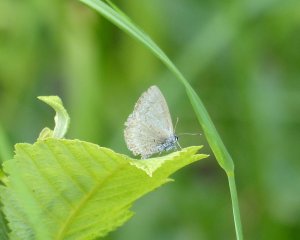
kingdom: Animalia
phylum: Arthropoda
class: Insecta
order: Lepidoptera
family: Lycaenidae
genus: Celastrina
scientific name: Celastrina serotina
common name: Cherry Gall Azure
